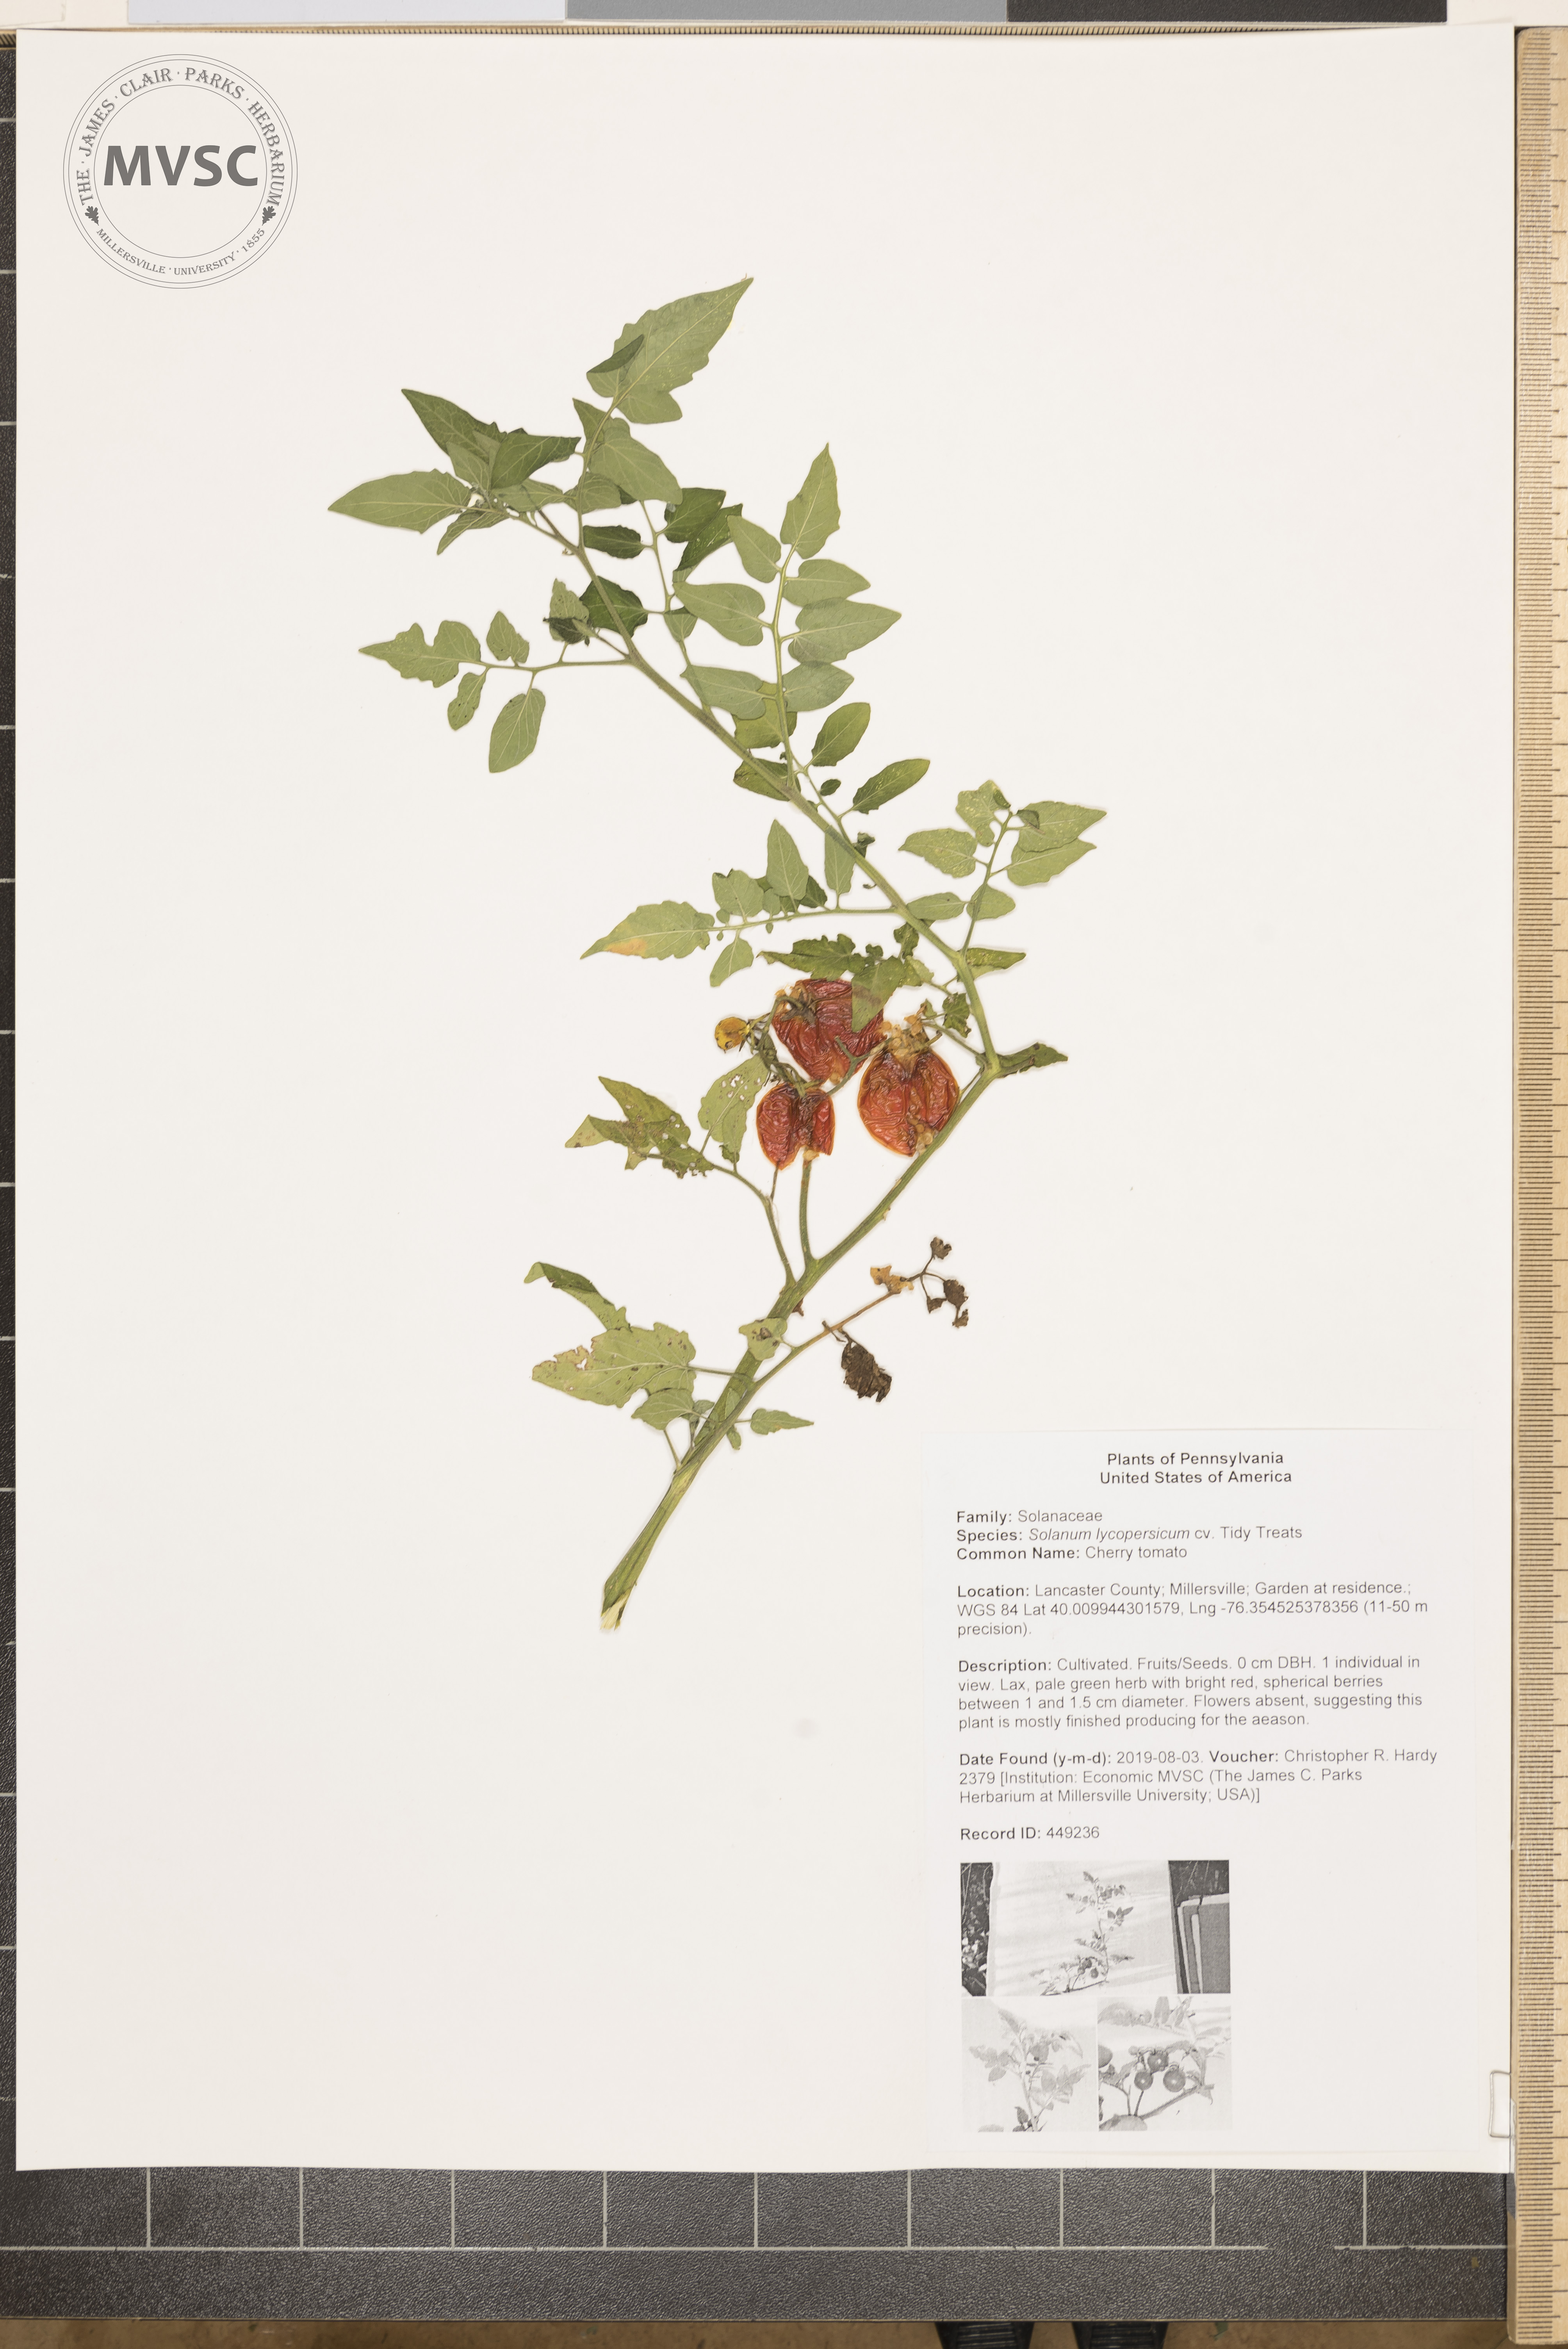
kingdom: Plantae
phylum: Tracheophyta
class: Magnoliopsida
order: Solanales
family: Solanaceae
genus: Solanum
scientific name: Solanum lycopersicum
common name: Cherry tomato
